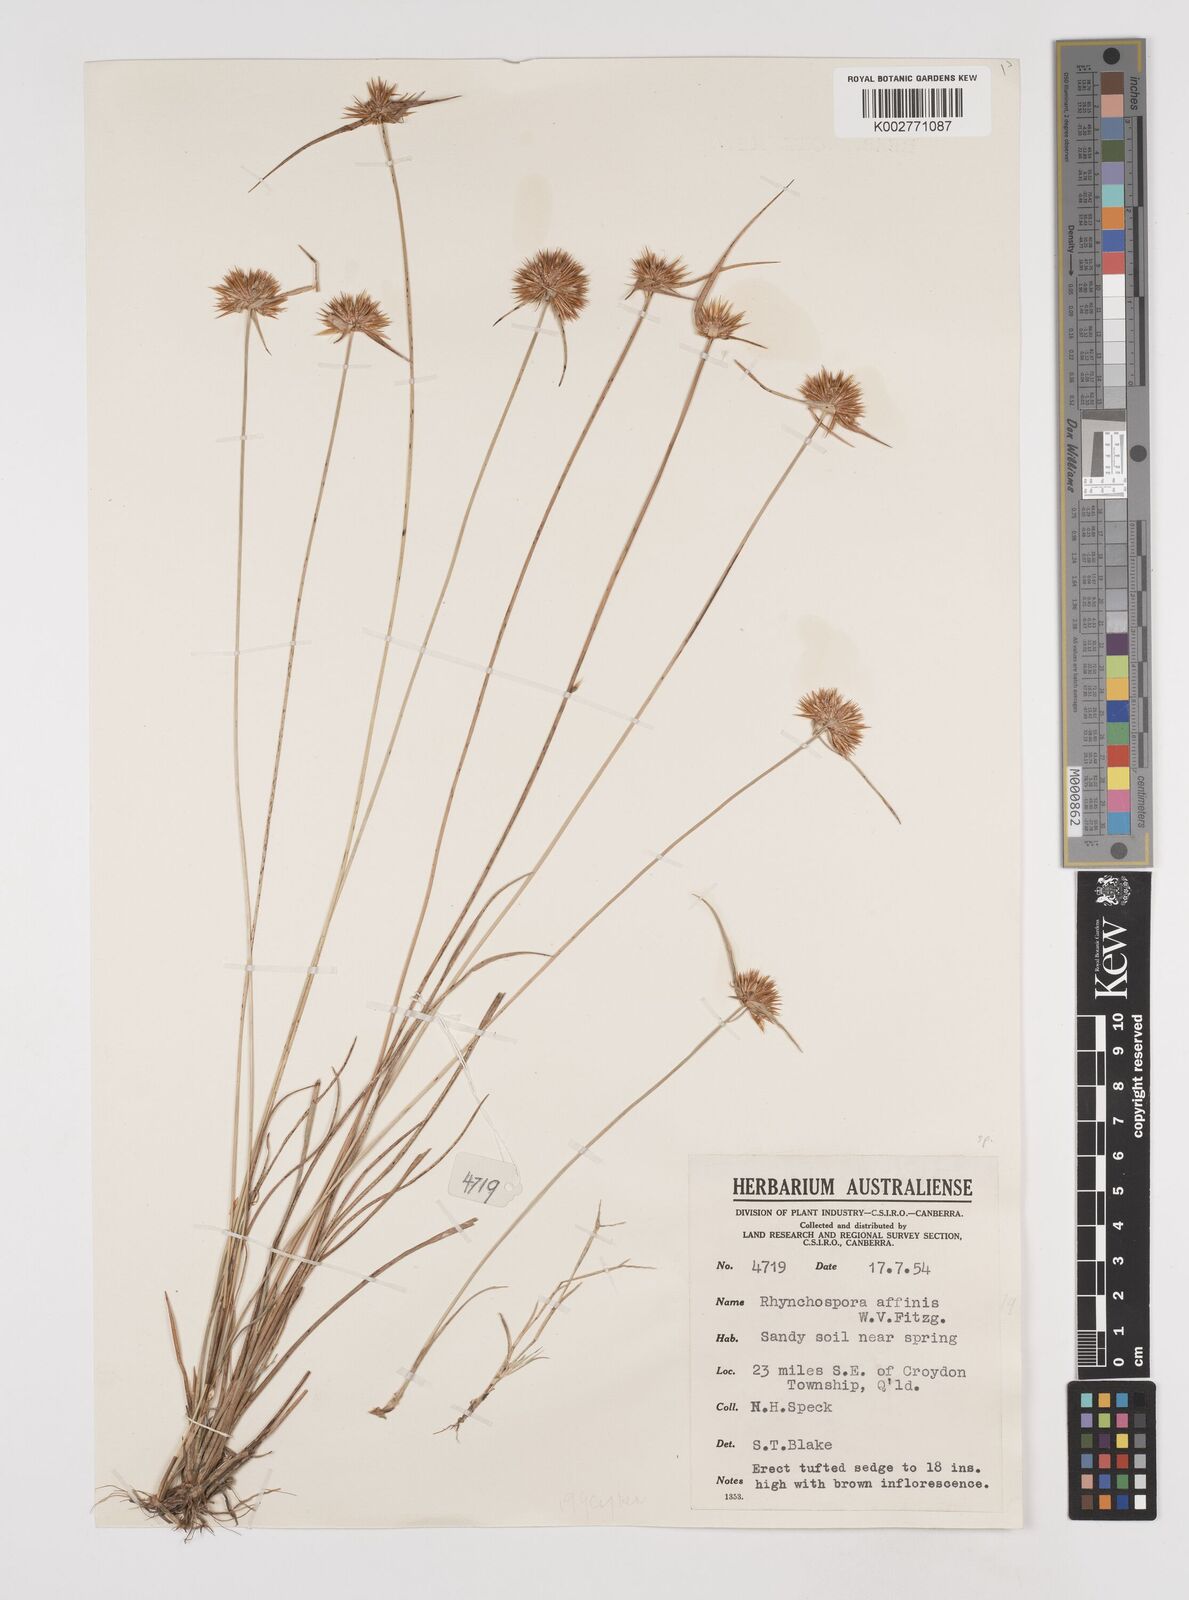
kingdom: Plantae
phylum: Tracheophyta
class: Liliopsida
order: Poales
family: Cyperaceae
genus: Rhynchospora
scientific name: Rhynchospora affinis
